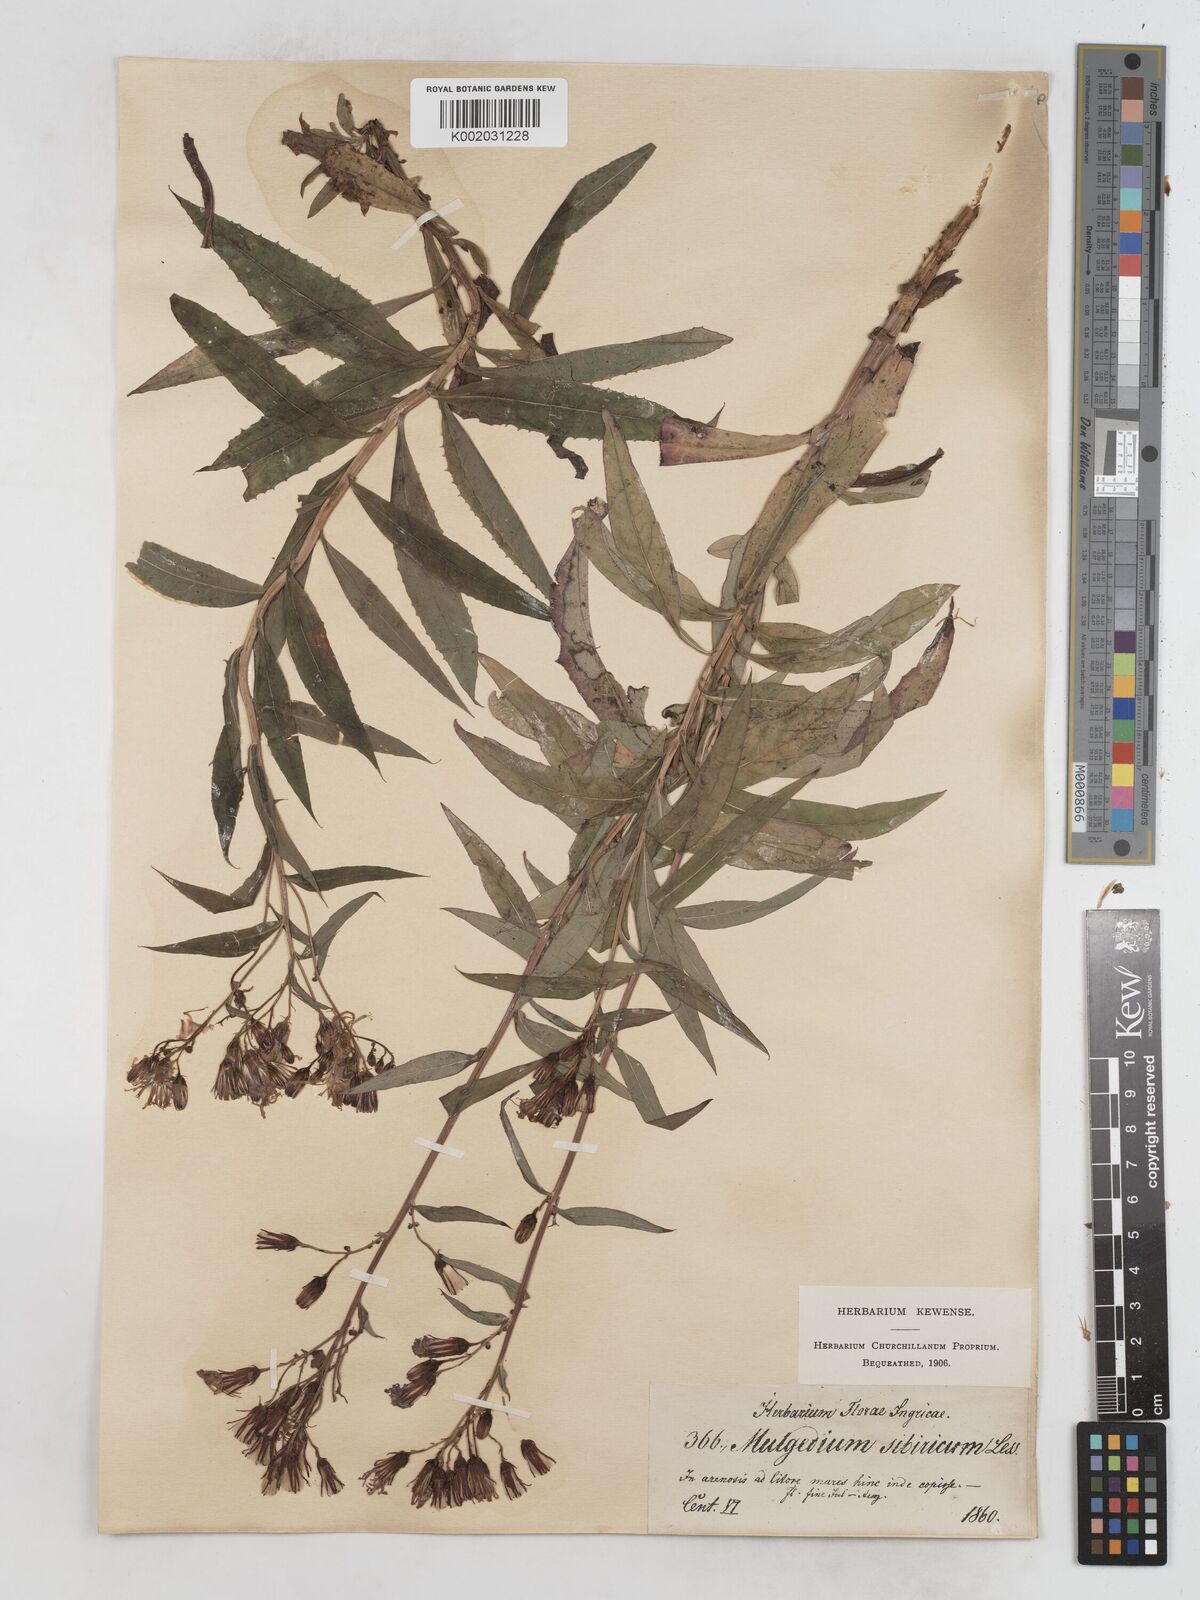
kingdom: Plantae
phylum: Tracheophyta
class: Magnoliopsida
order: Asterales
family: Asteraceae
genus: Lactuca
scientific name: Lactuca sibirica
